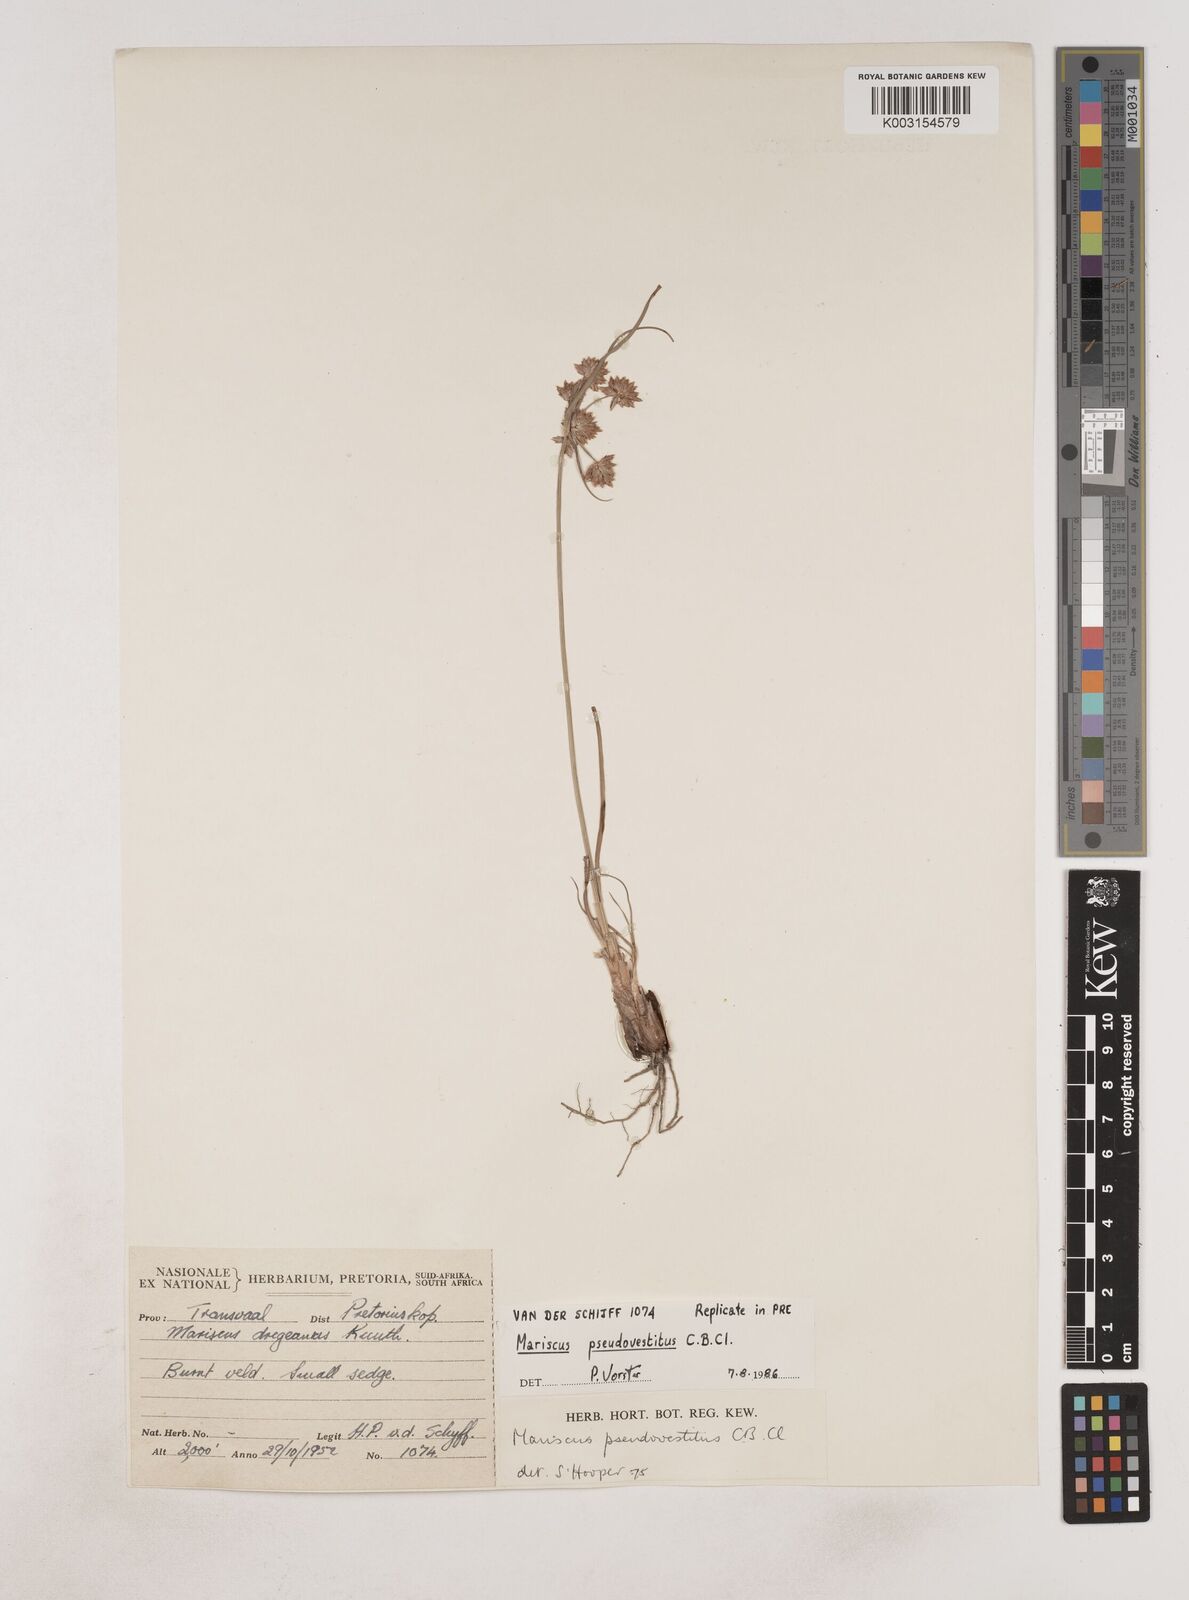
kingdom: Plantae
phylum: Tracheophyta
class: Liliopsida
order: Poales
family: Cyperaceae
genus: Cyperus
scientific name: Cyperus pseudovestitus
